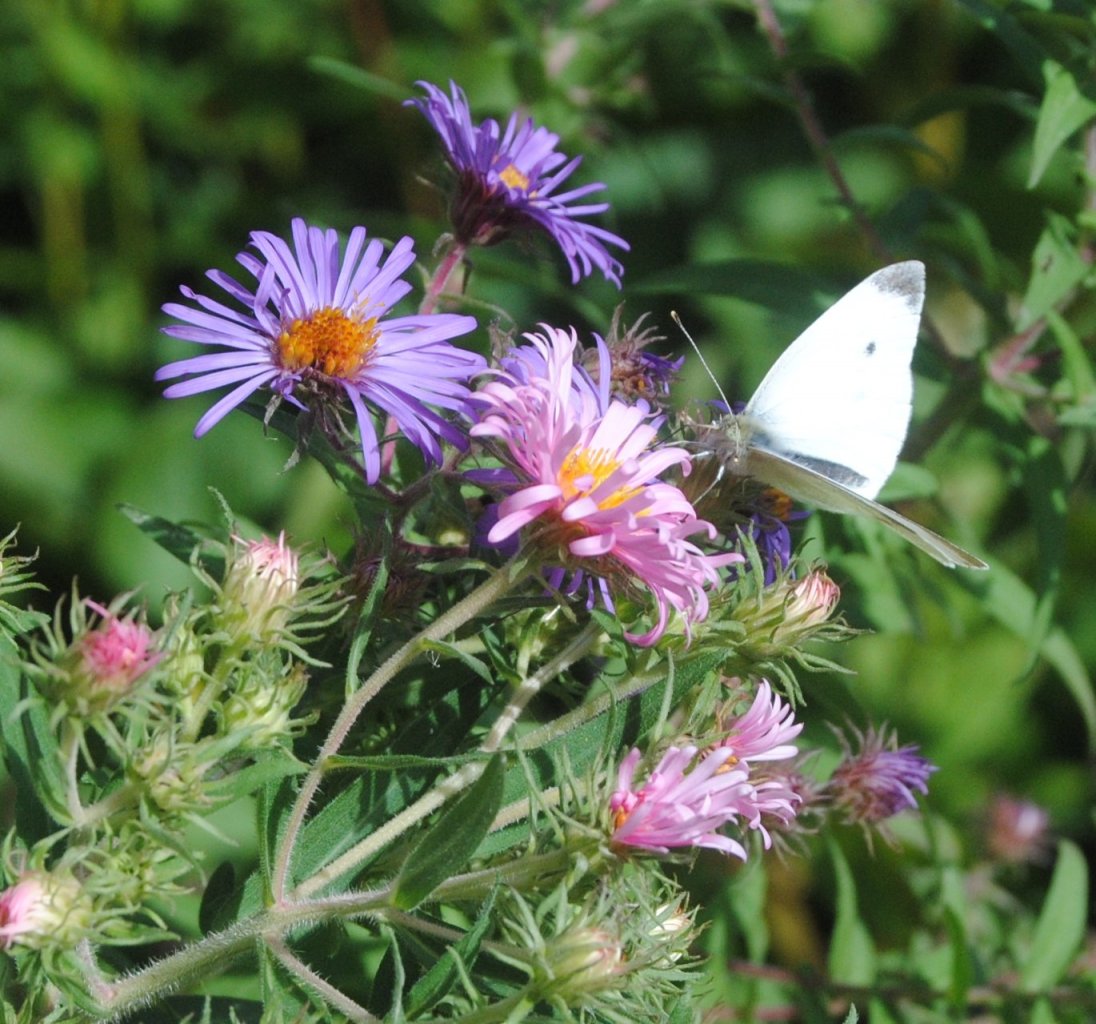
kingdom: Animalia
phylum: Arthropoda
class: Insecta
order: Lepidoptera
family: Pieridae
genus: Pieris
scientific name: Pieris rapae
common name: Cabbage White
